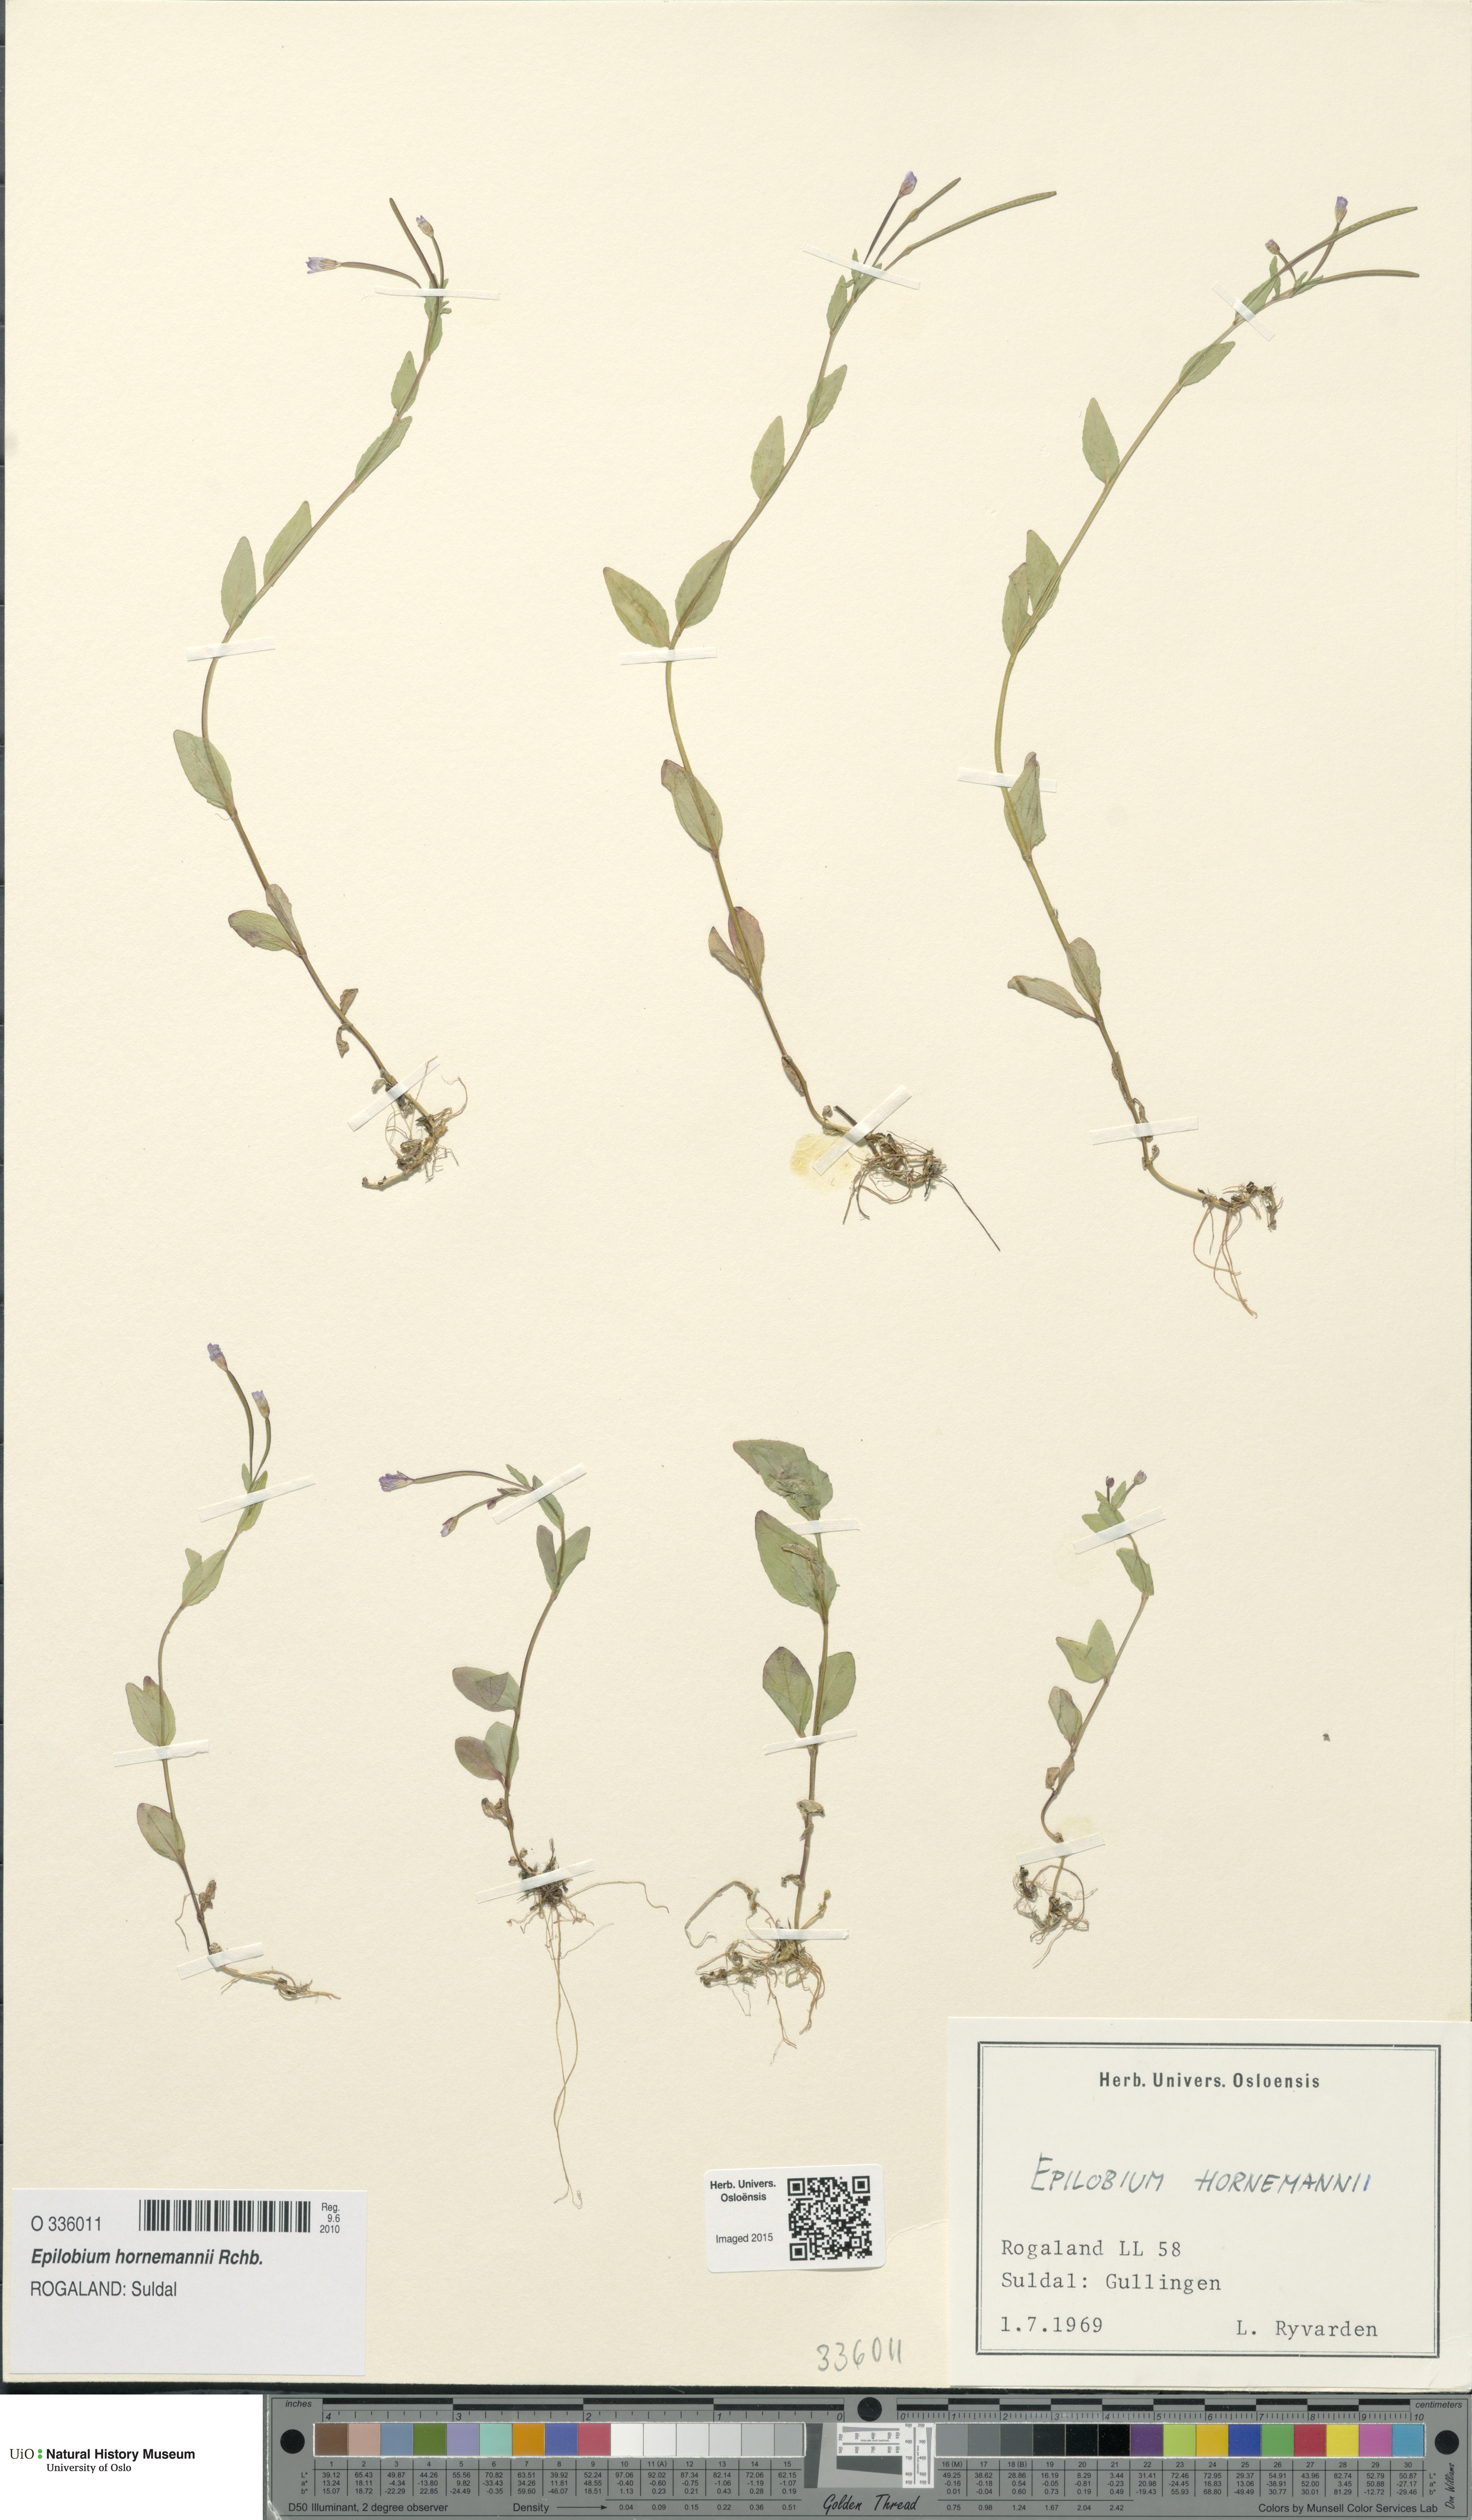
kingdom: Plantae
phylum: Tracheophyta
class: Magnoliopsida
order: Myrtales
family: Onagraceae
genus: Epilobium
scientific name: Epilobium hornemannii
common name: Hornemann's willowherb
